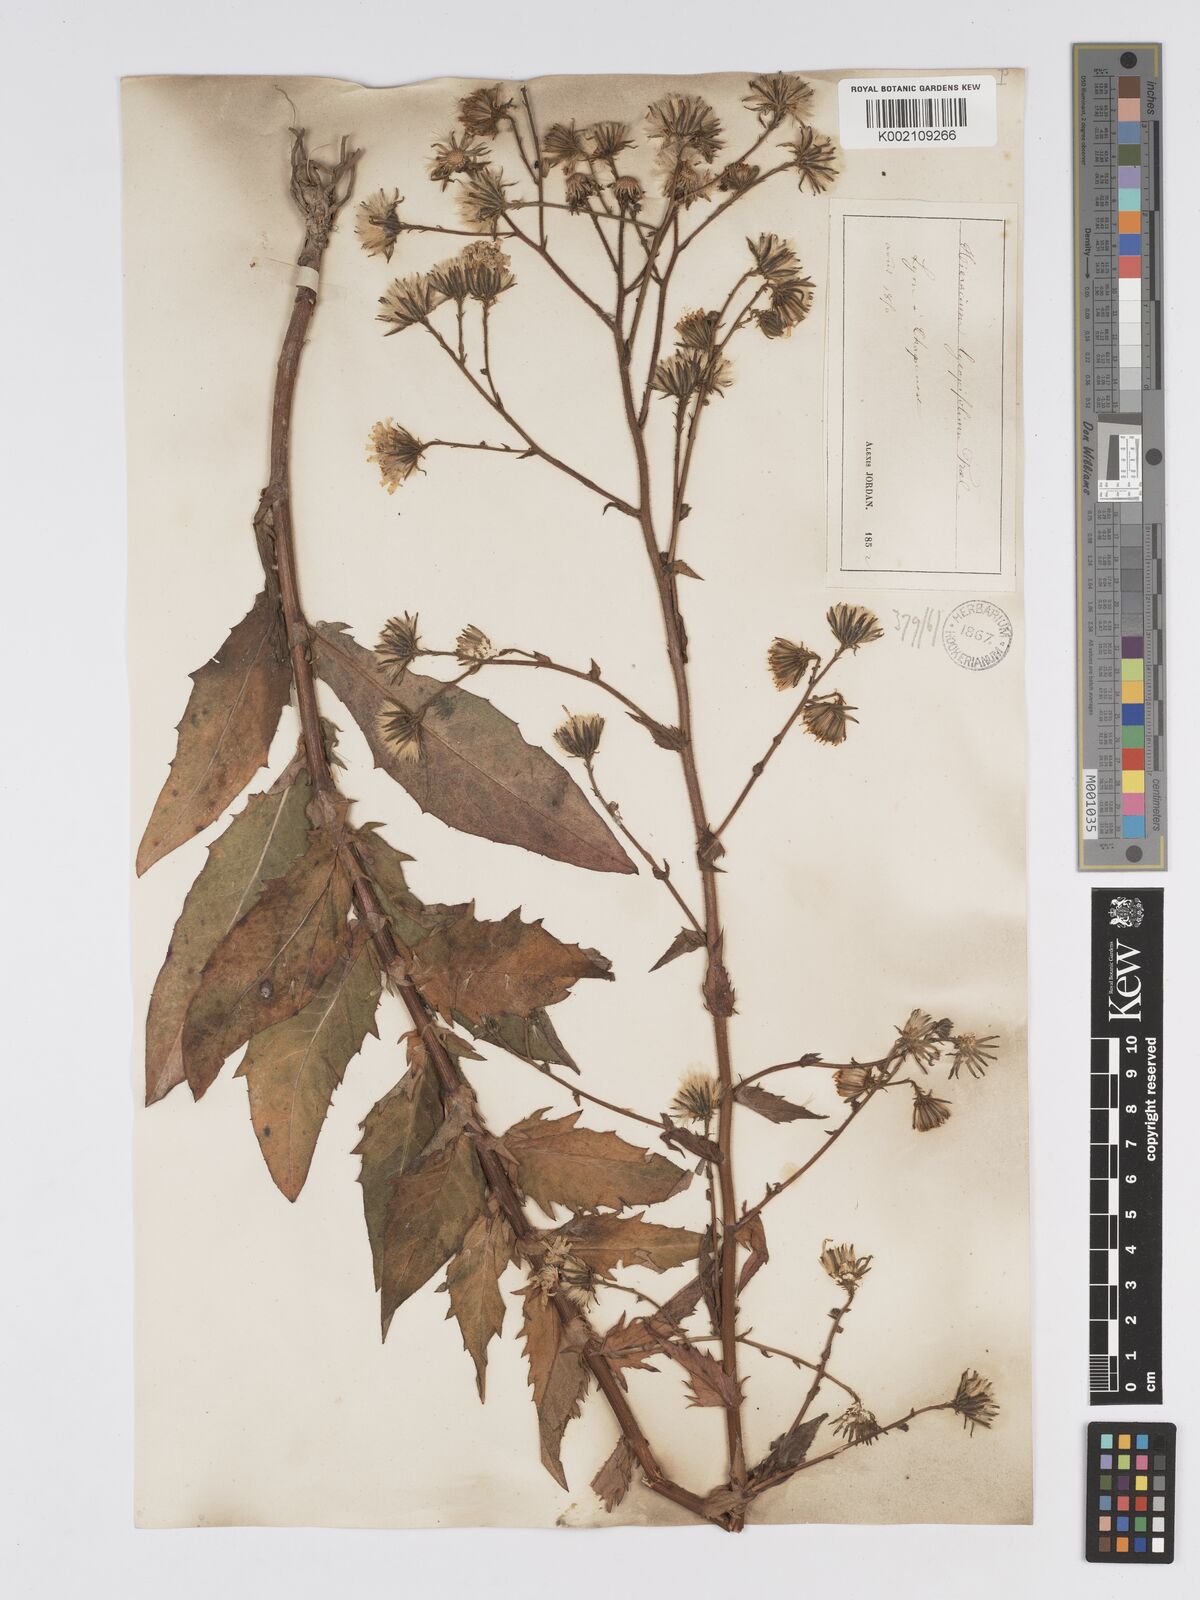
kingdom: Plantae
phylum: Tracheophyta
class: Magnoliopsida
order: Asterales
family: Asteraceae
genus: Hieracium
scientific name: Hieracium lycopifolium
